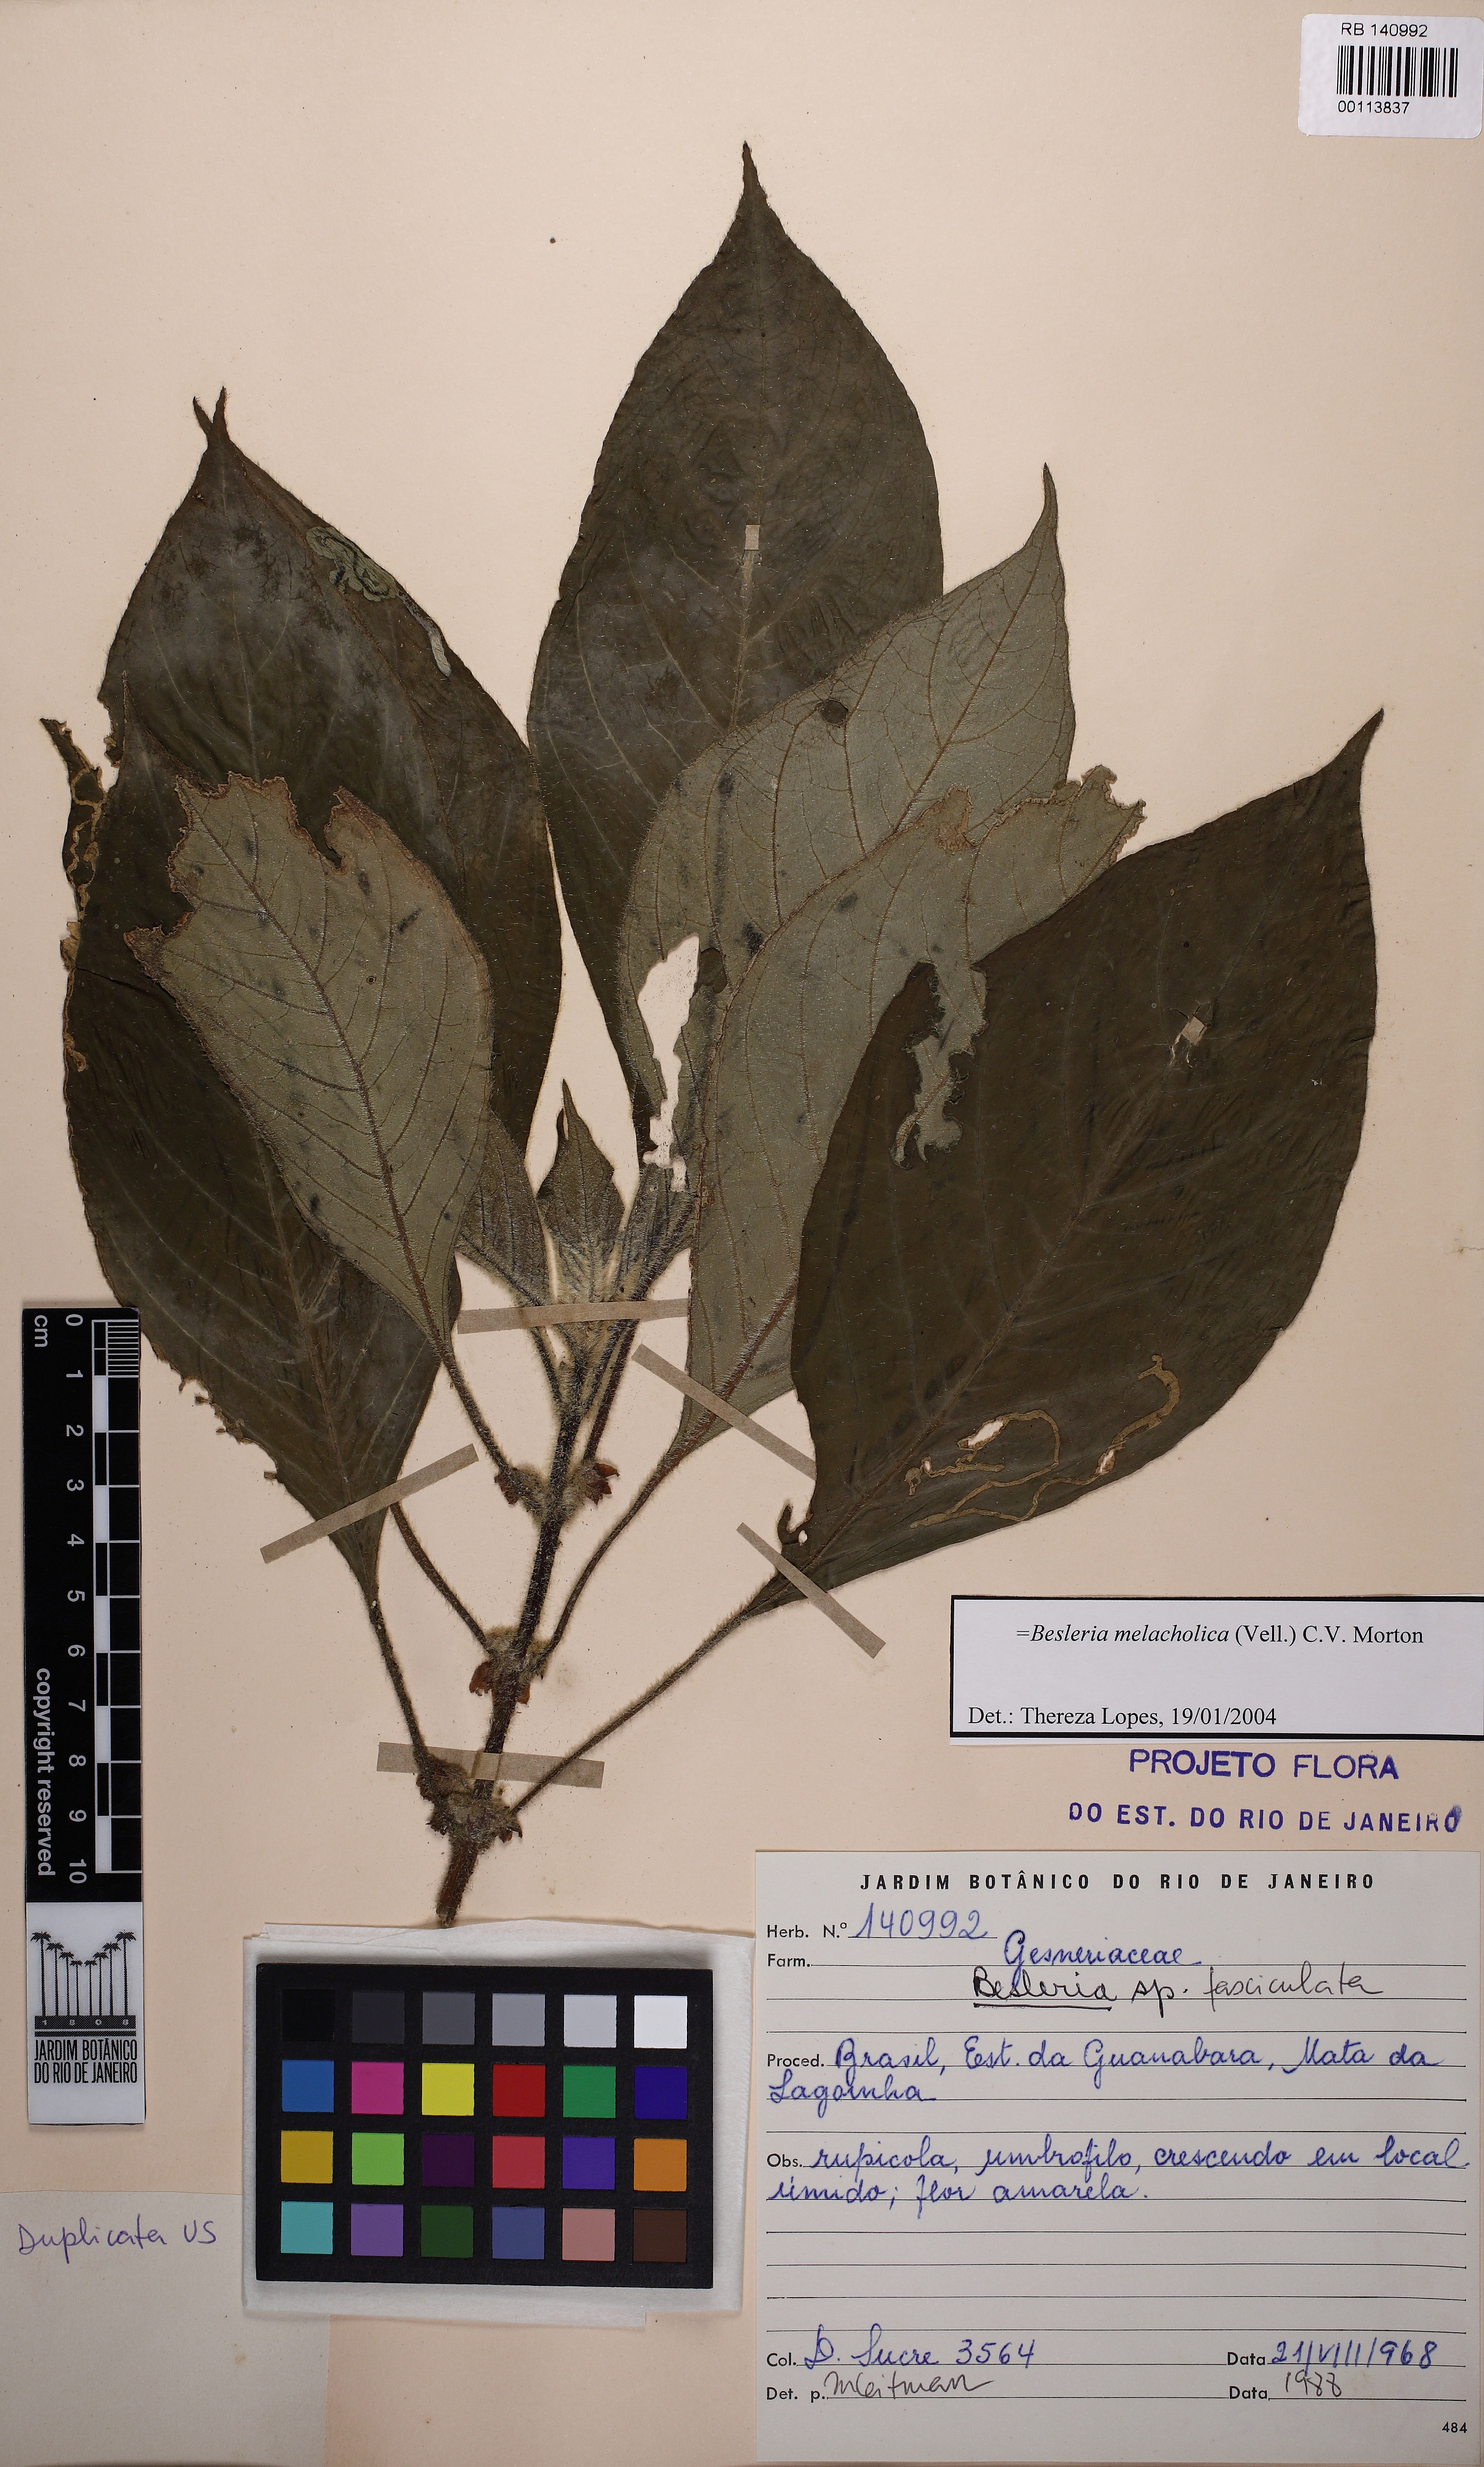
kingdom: Plantae
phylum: Tracheophyta
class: Magnoliopsida
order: Lamiales
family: Gesneriaceae
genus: Besleria
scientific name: Besleria melancholica
